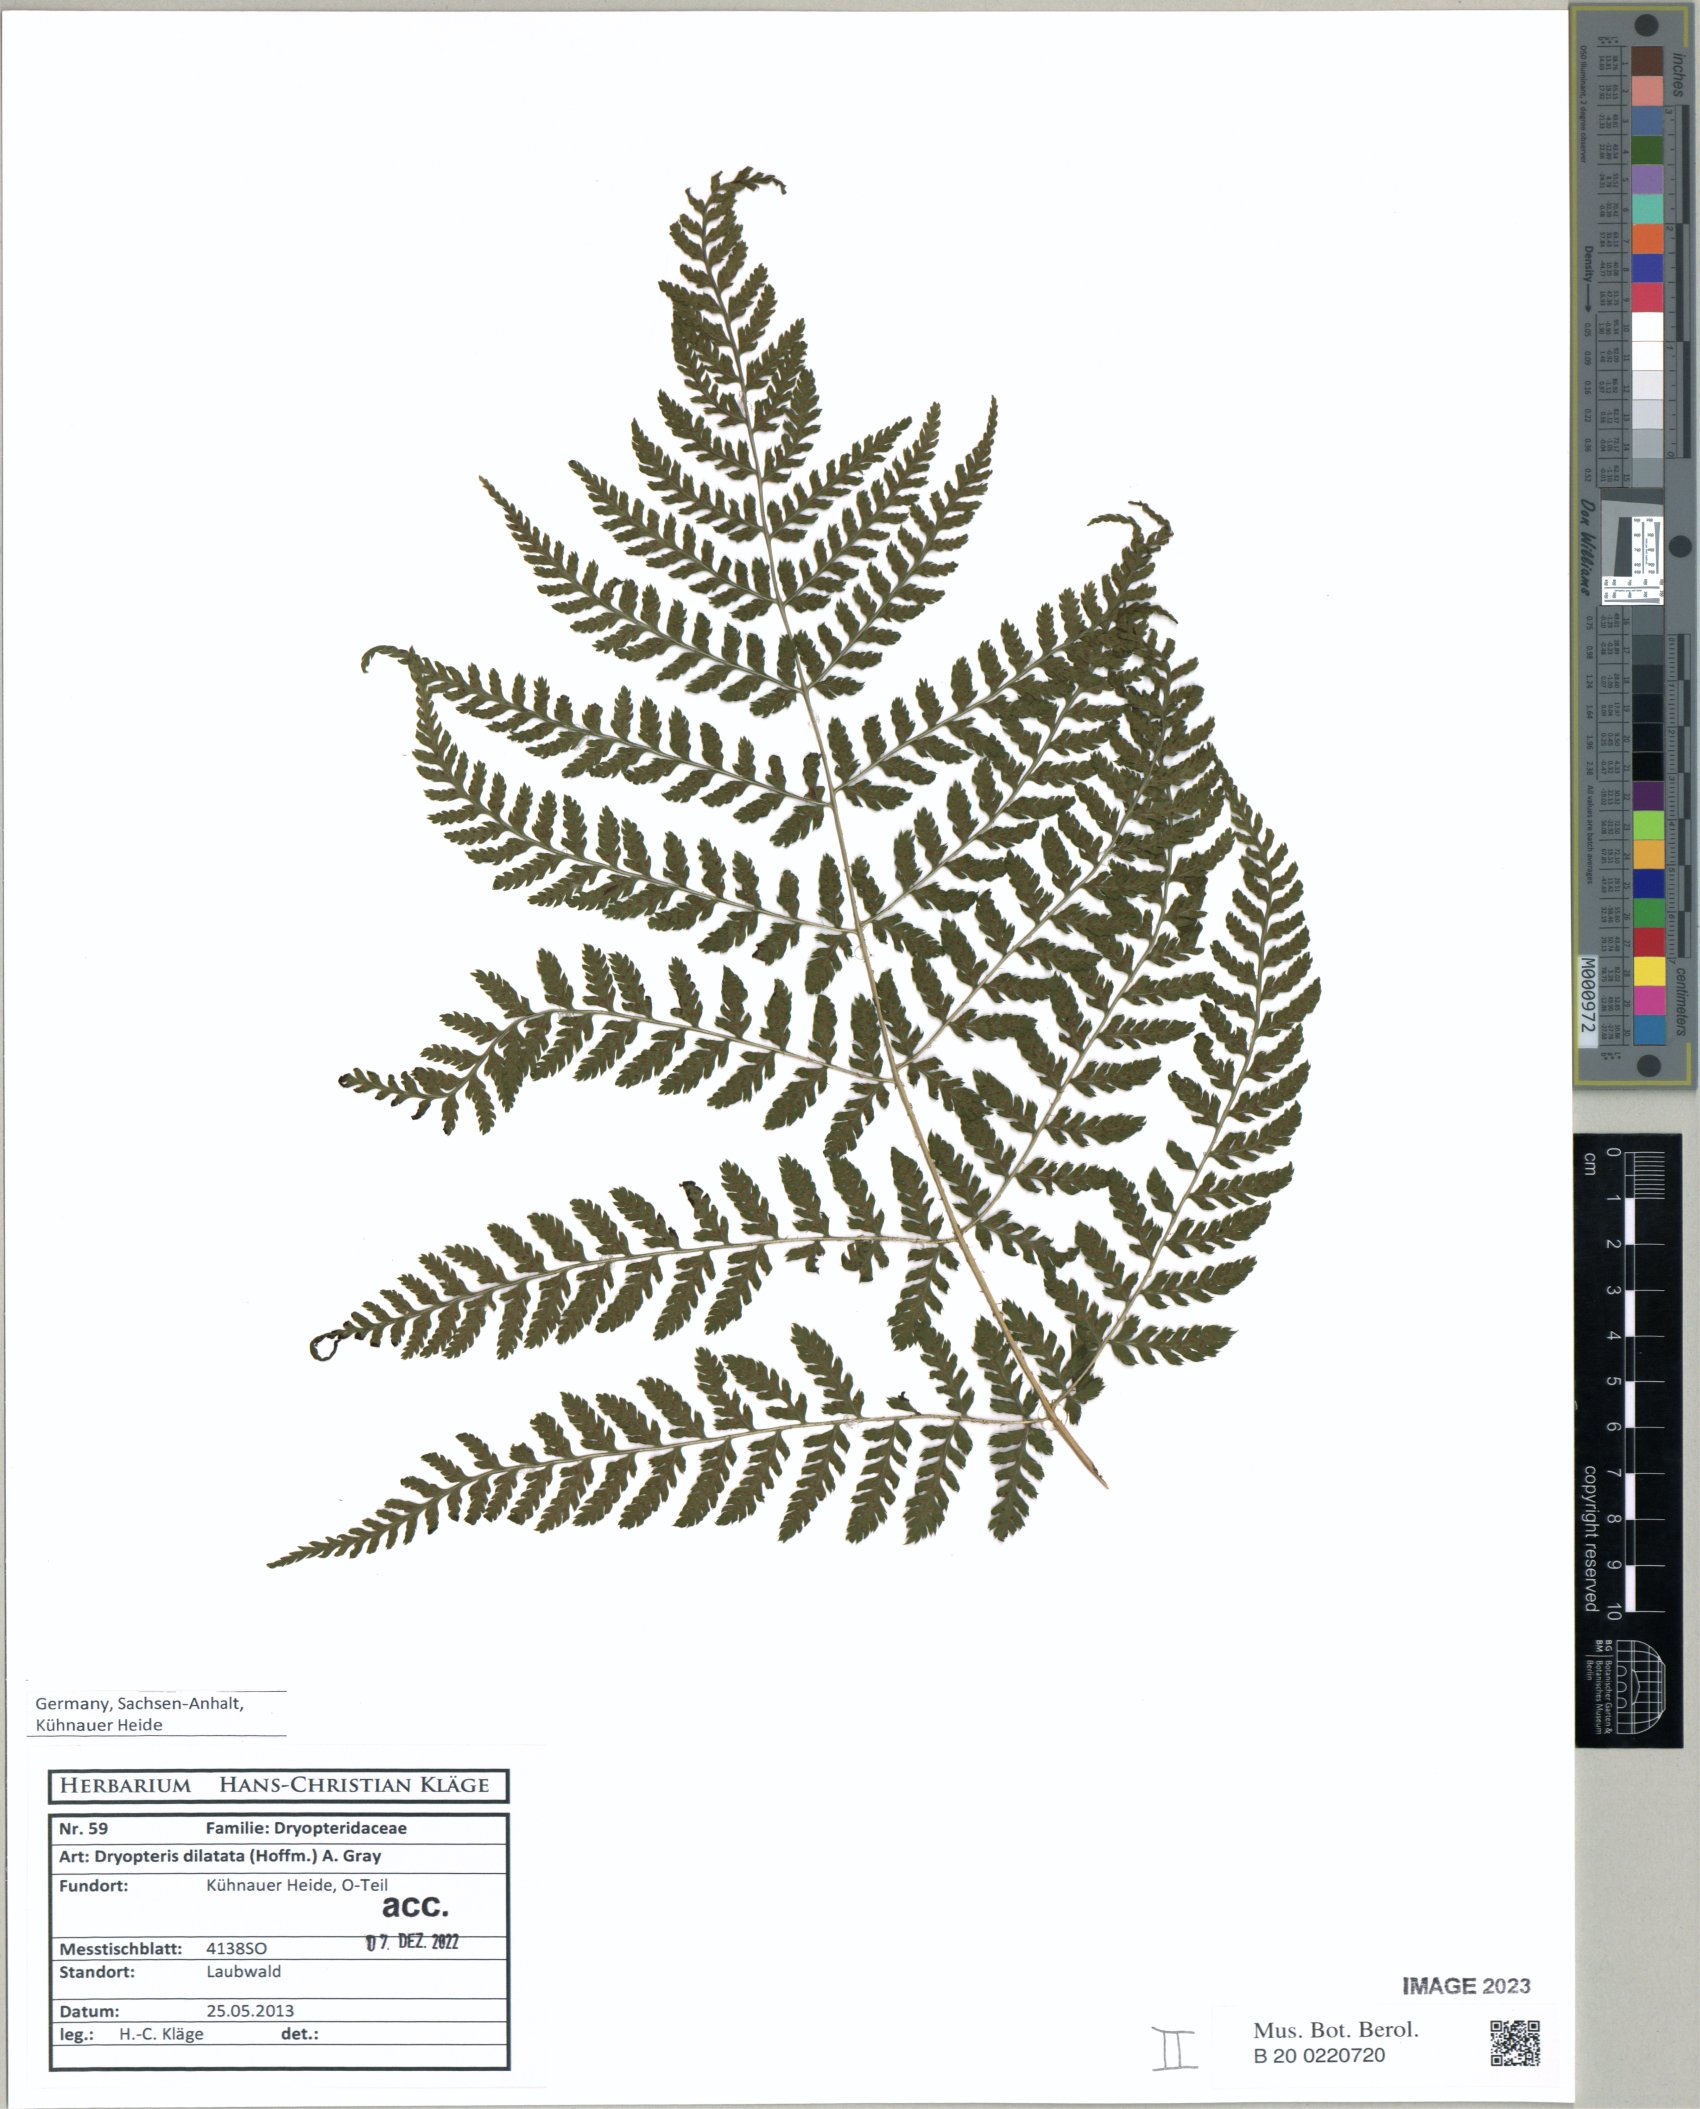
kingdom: Plantae
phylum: Tracheophyta
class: Polypodiopsida
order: Polypodiales
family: Dryopteridaceae
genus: Dryopteris
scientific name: Dryopteris dilatata
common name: Broad buckler-fern
